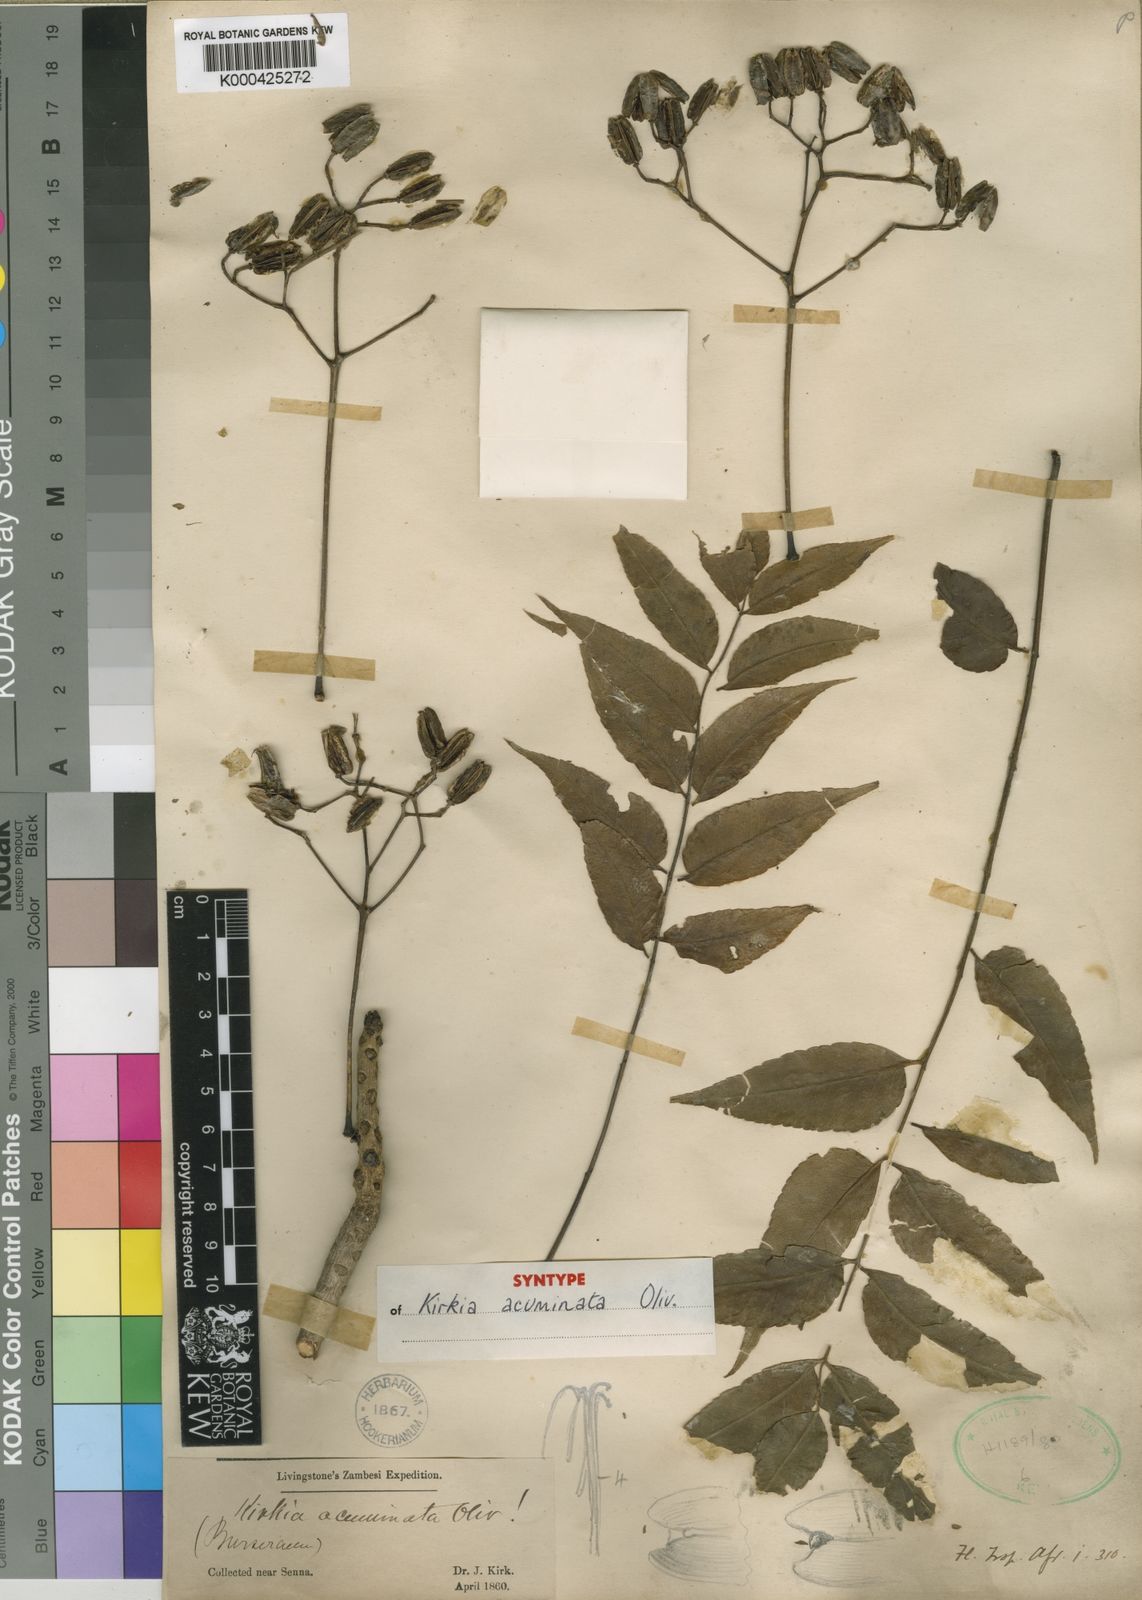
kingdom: Plantae
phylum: Tracheophyta
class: Magnoliopsida
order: Sapindales
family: Kirkiaceae
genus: Kirkia
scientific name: Kirkia acuminata
